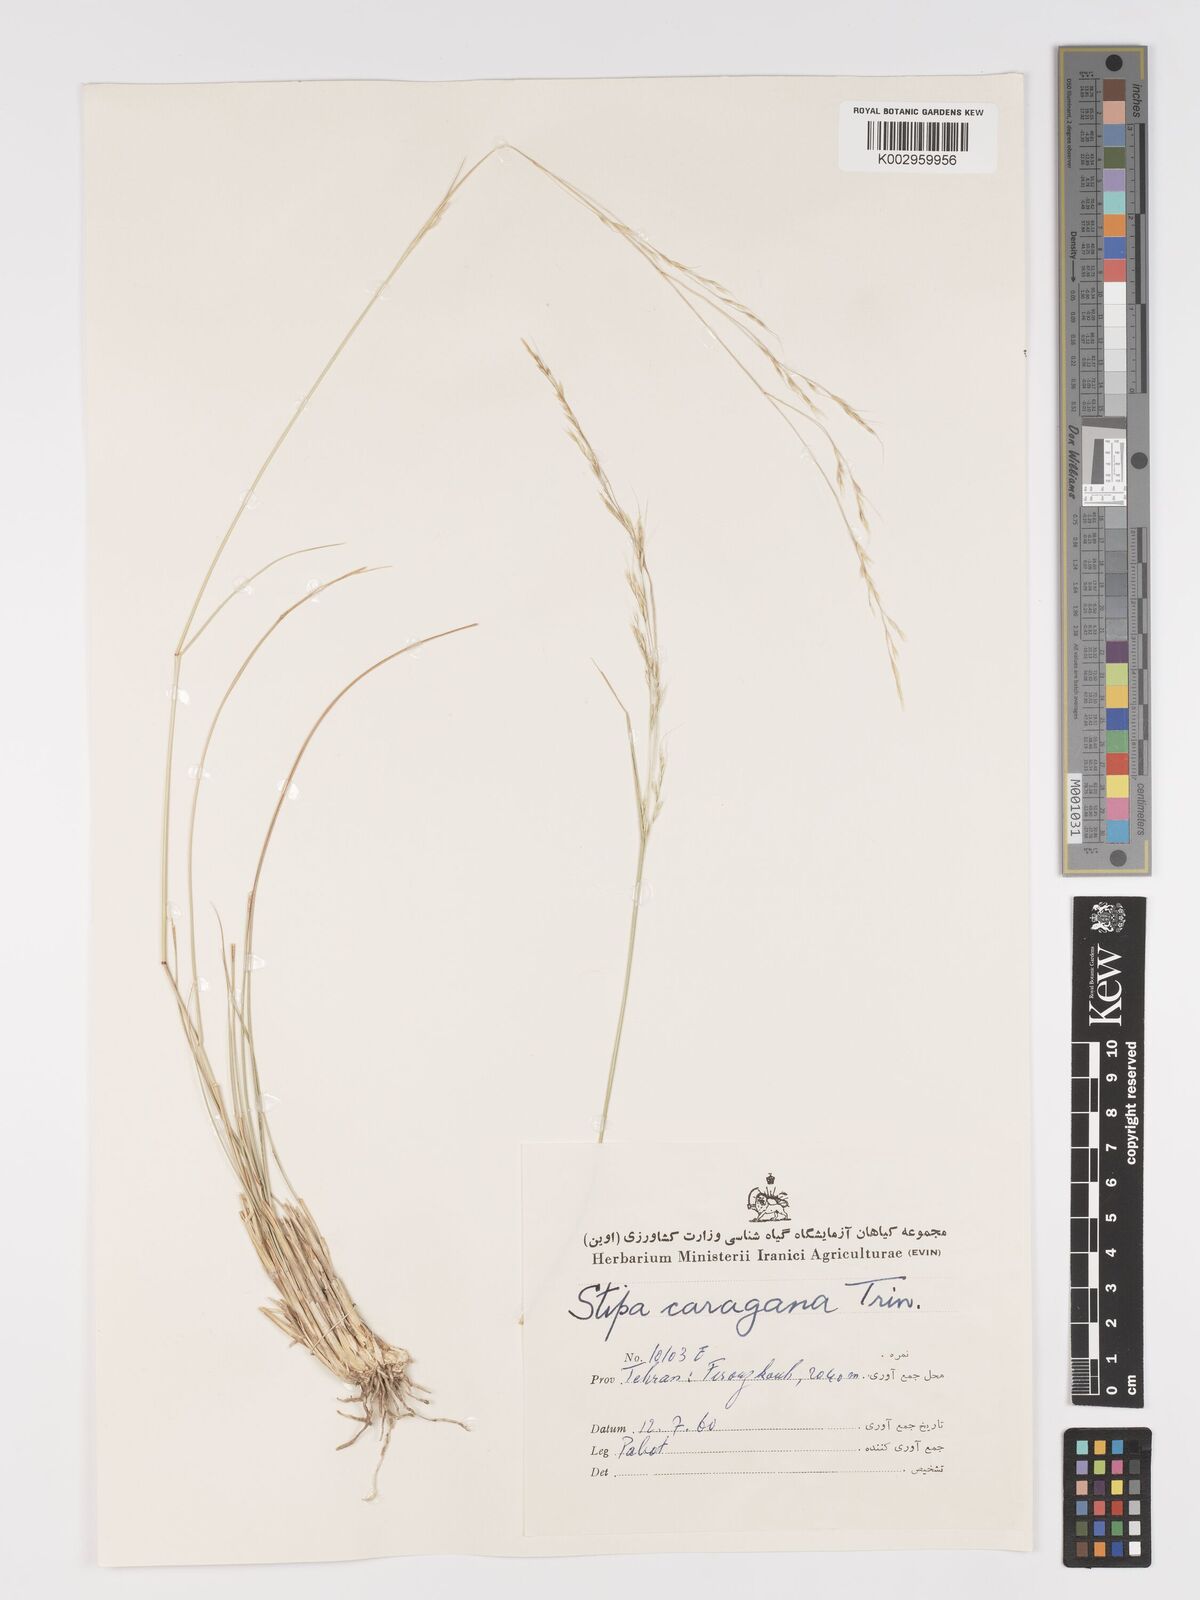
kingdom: Plantae
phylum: Tracheophyta
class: Liliopsida
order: Poales
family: Poaceae
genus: Stipa
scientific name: Stipa conferta
